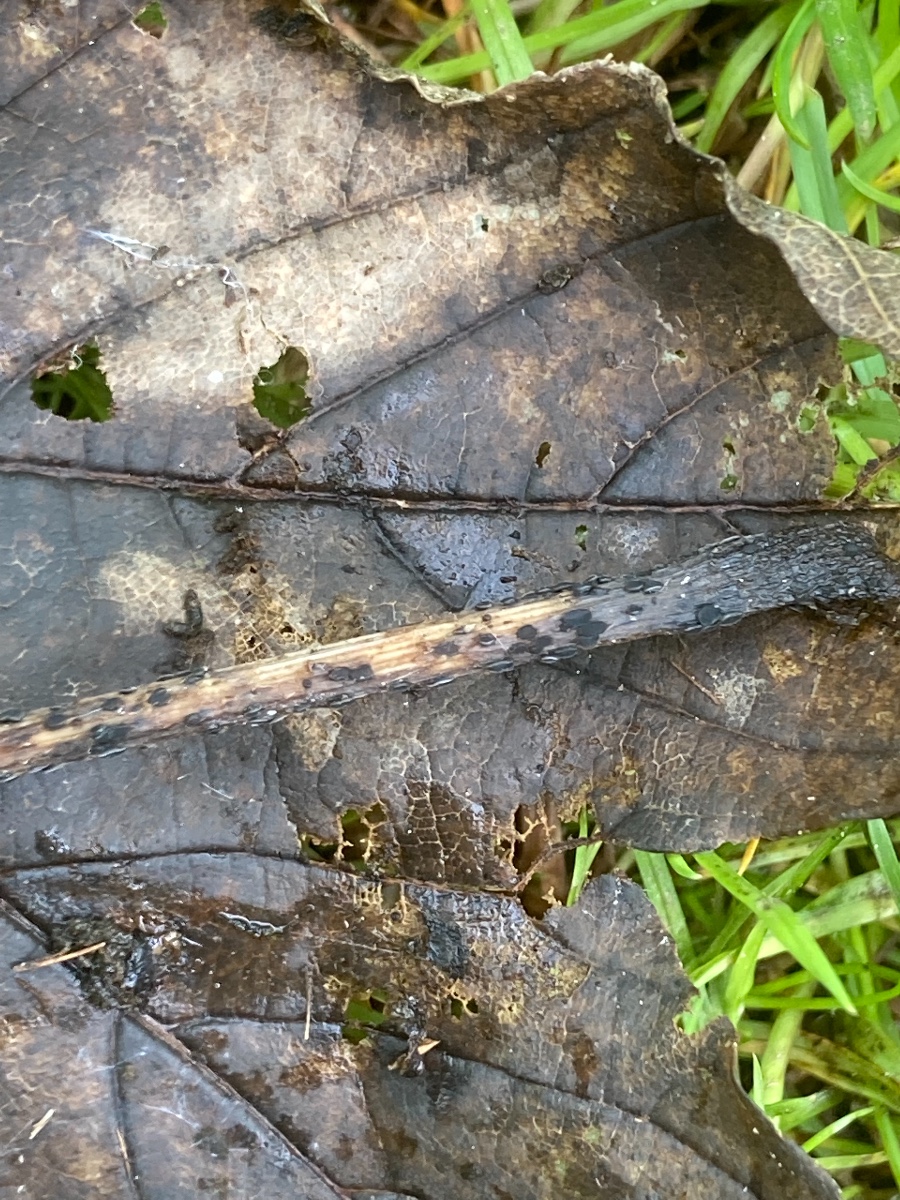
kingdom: Fungi
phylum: Ascomycota
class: Leotiomycetes
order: Helotiales
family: Ploettnerulaceae
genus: Pyrenopeziza
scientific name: Pyrenopeziza petiolaris
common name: ahorn-kerneskive
